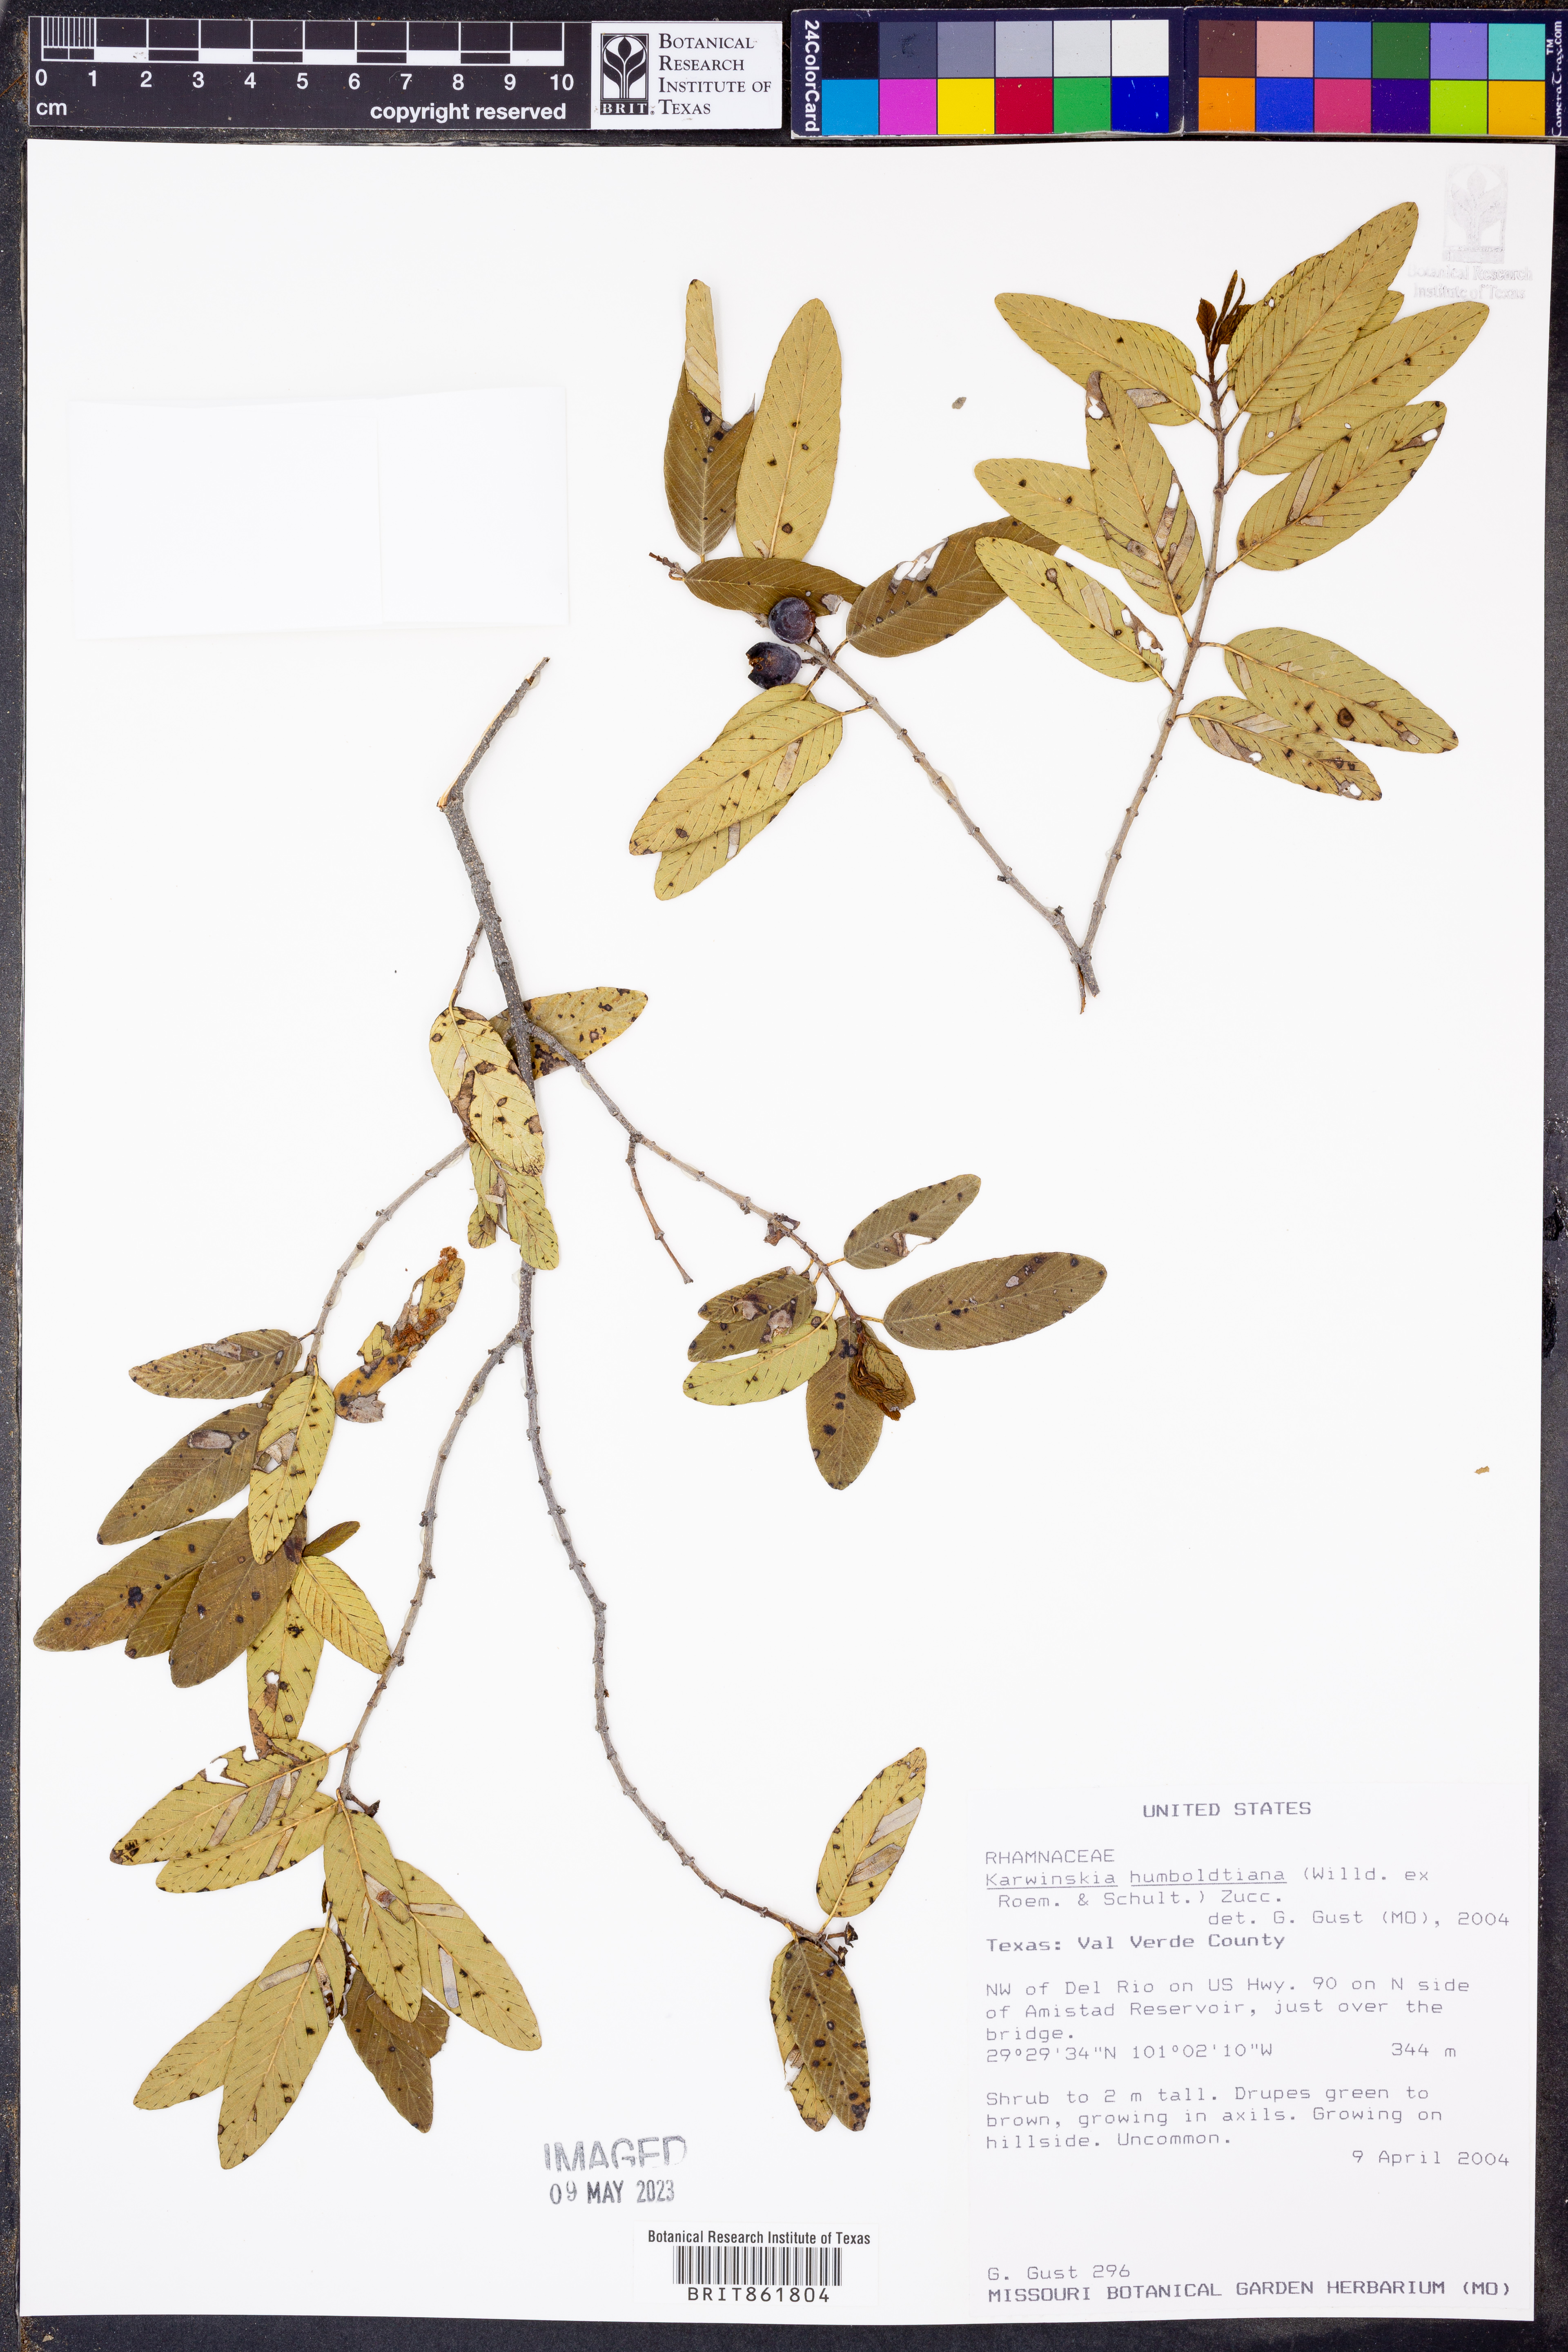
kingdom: Plantae
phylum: Tracheophyta
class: Magnoliopsida
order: Rosales
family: Rhamnaceae
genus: Karwinskia
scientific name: Karwinskia humboldtiana
